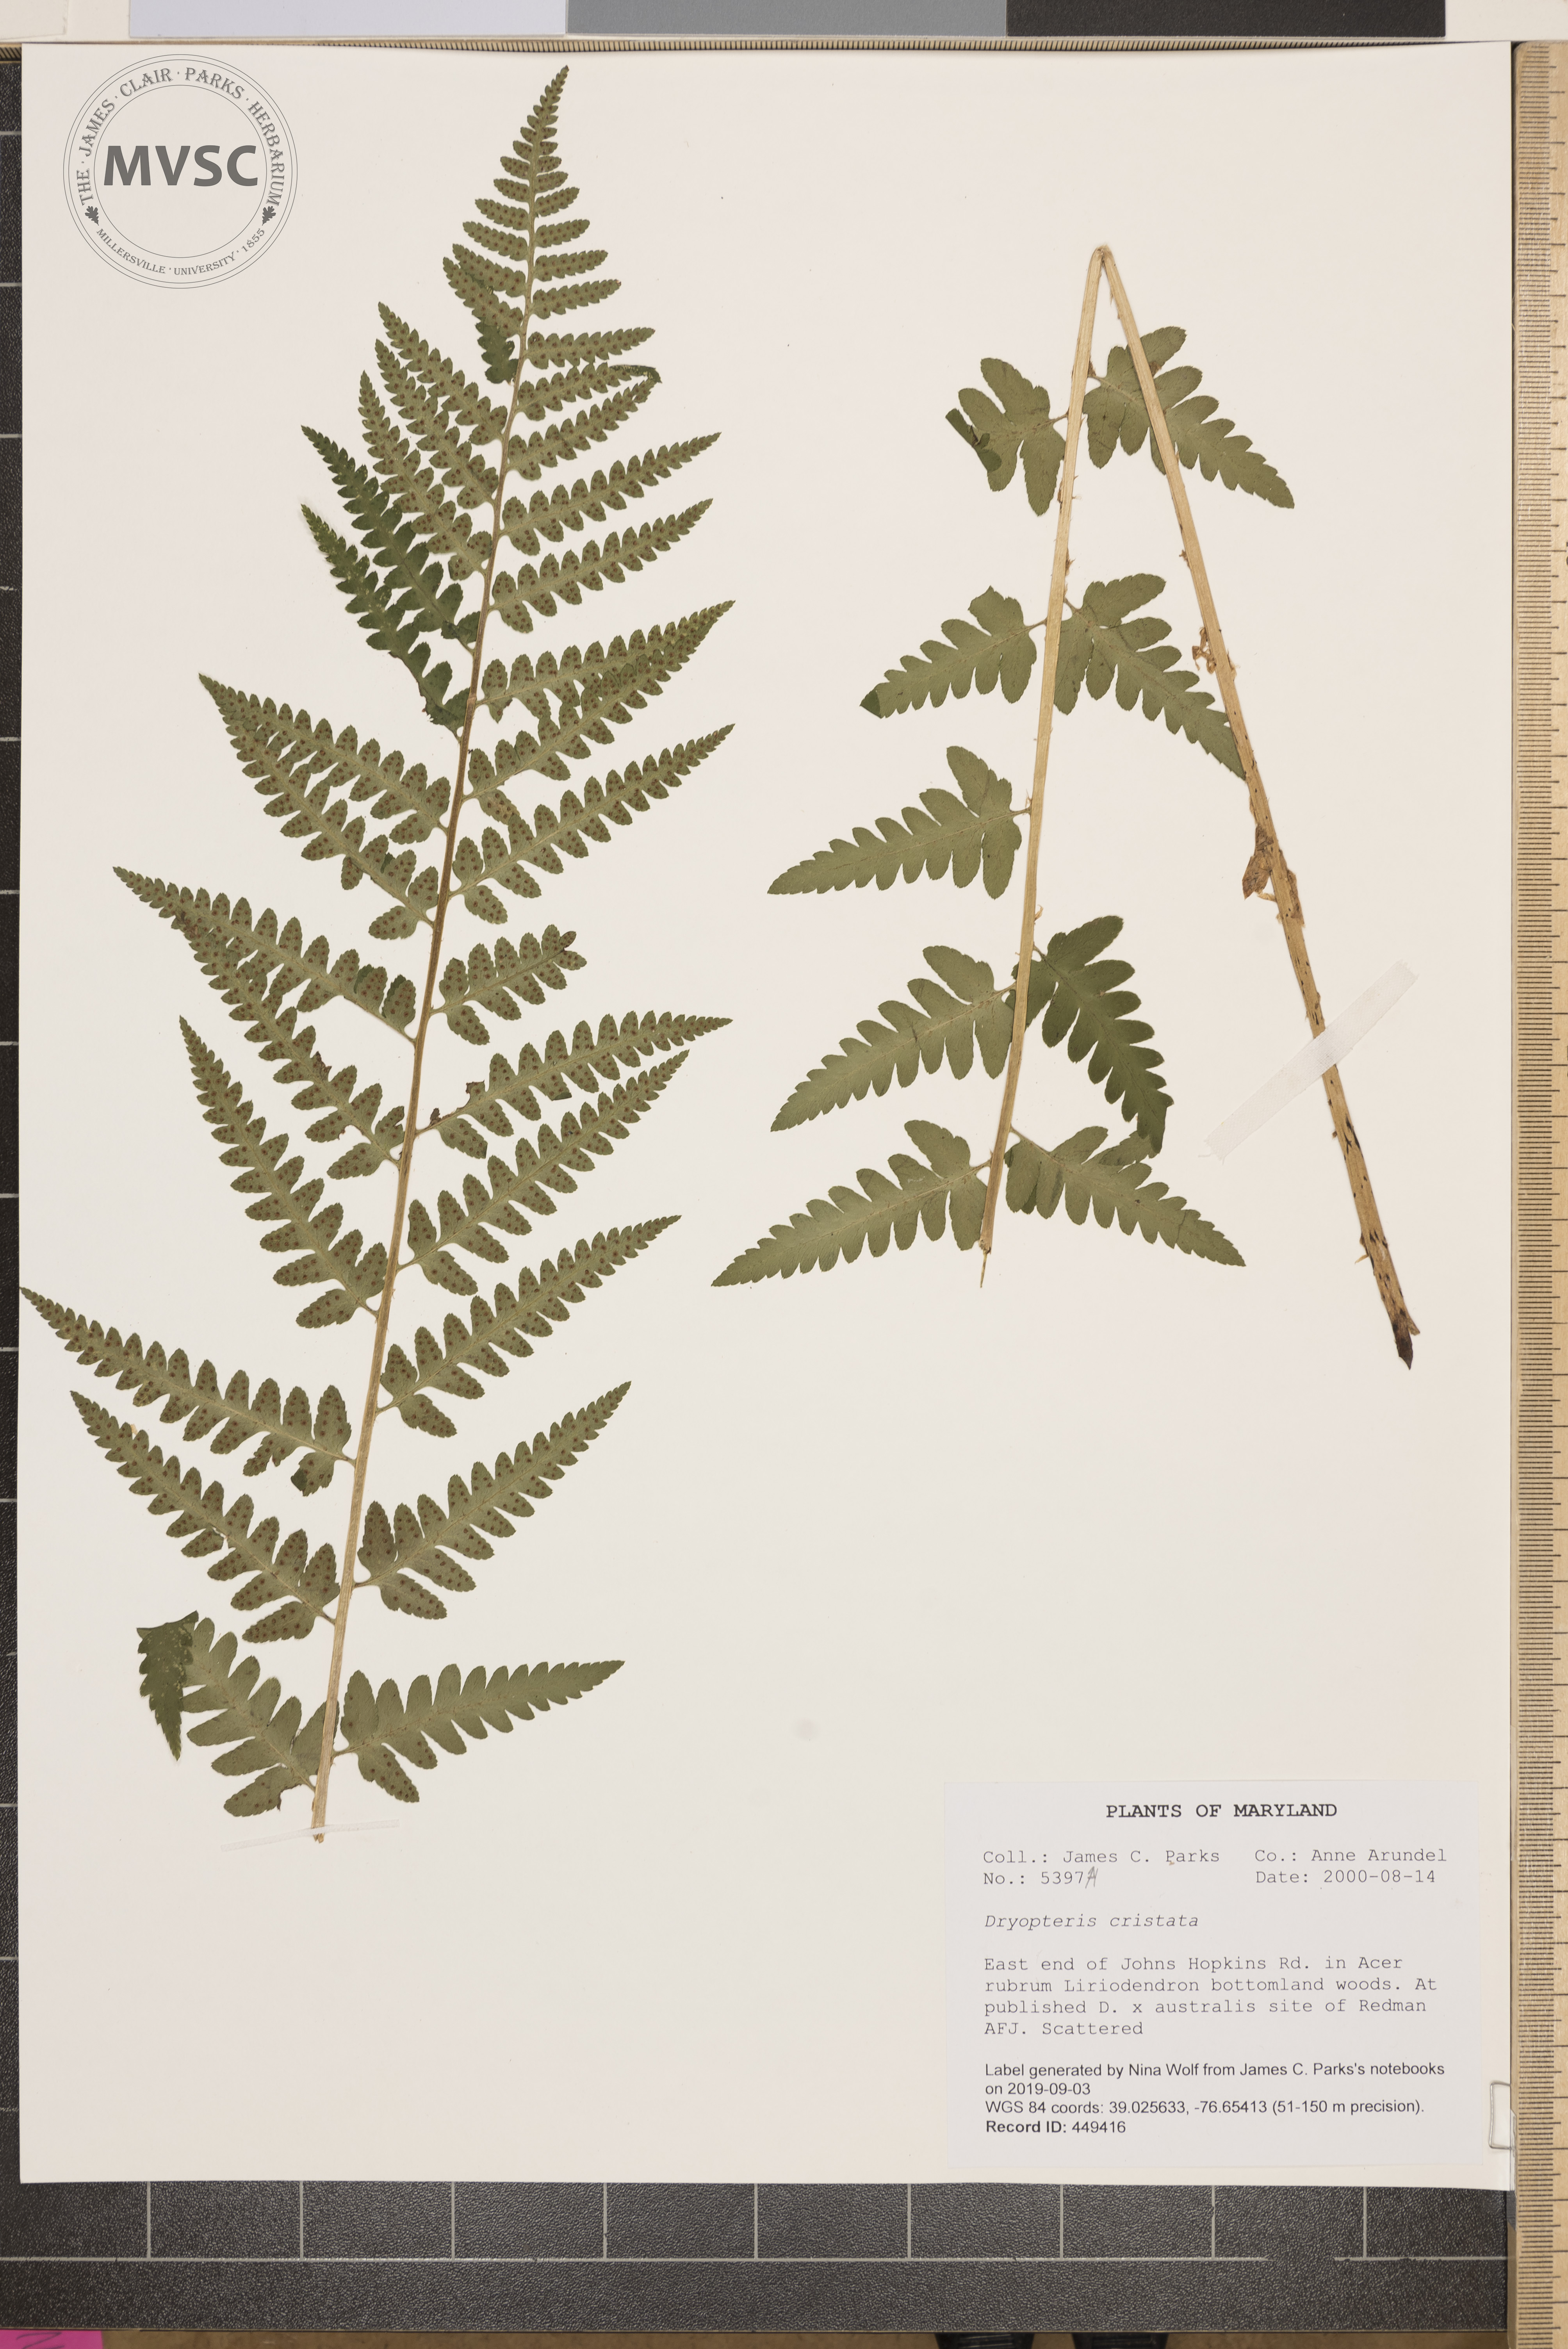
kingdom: Plantae
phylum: Tracheophyta
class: Polypodiopsida
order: Polypodiales
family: Dryopteridaceae
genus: Dryopteris
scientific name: Dryopteris cristata
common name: Crested wood fern
